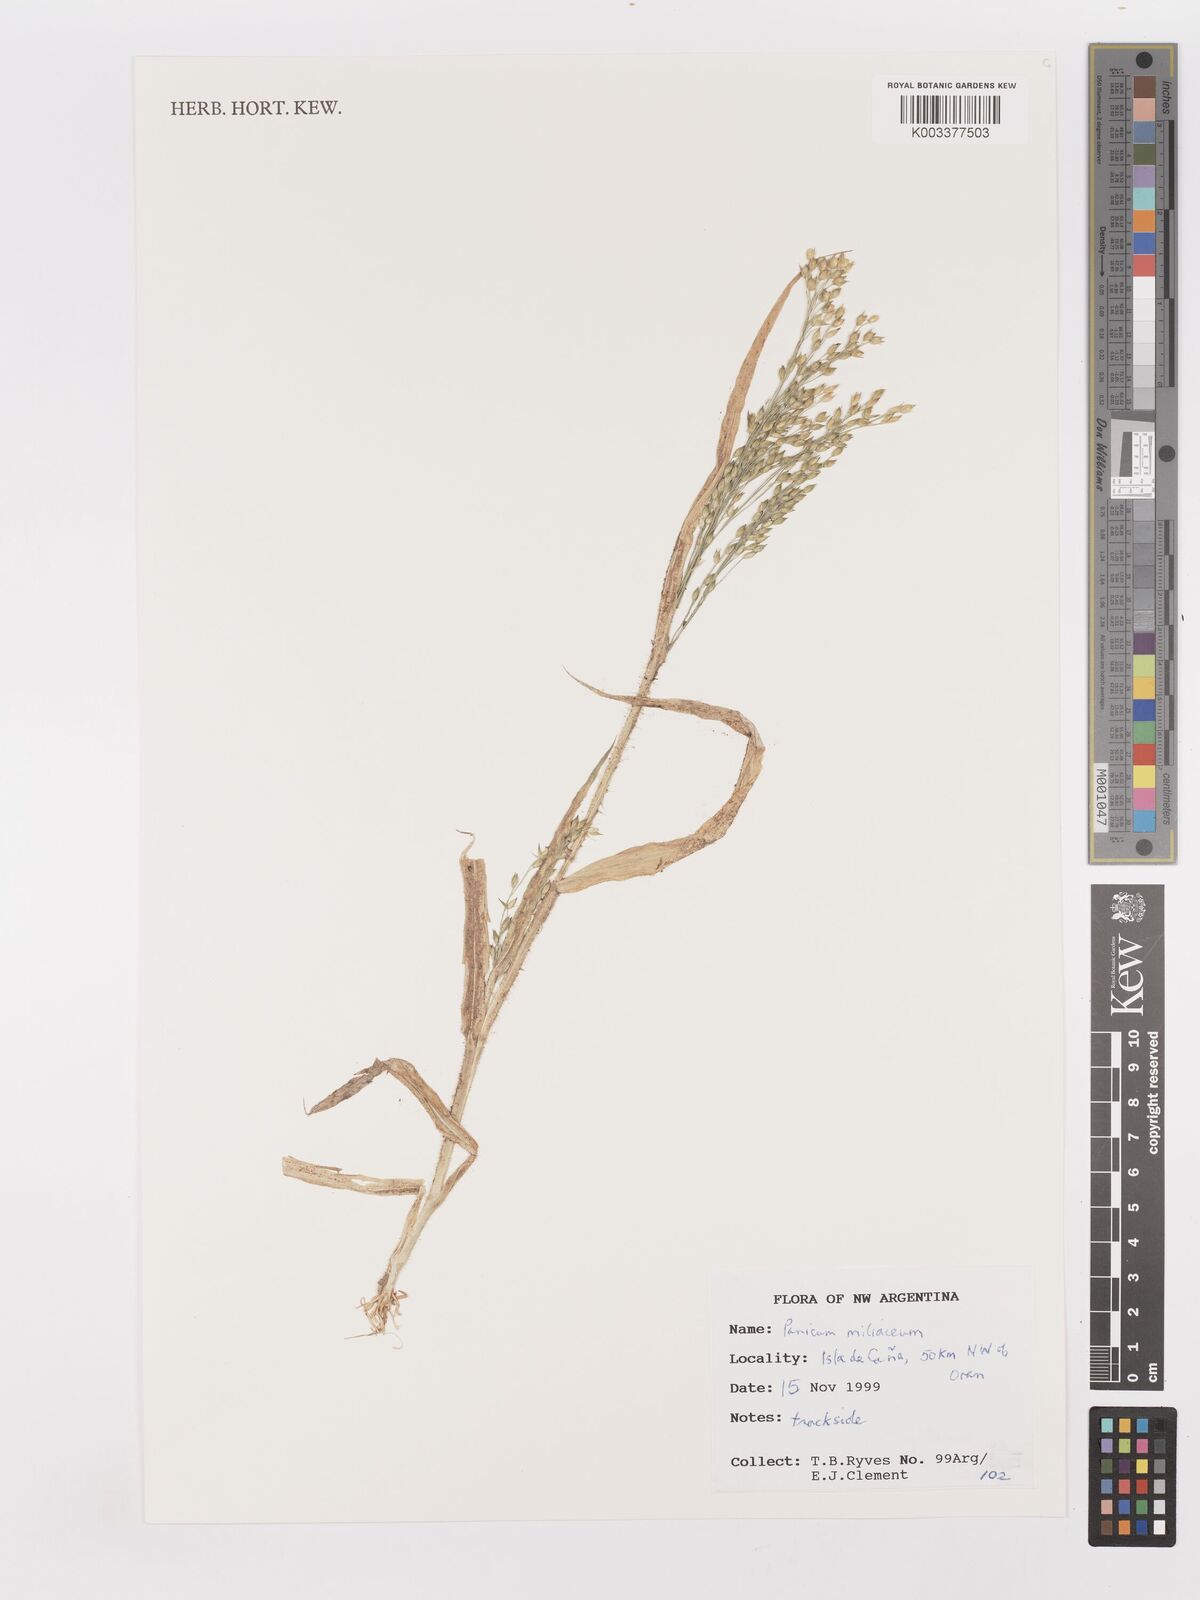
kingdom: Plantae
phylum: Tracheophyta
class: Liliopsida
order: Poales
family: Poaceae
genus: Panicum
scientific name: Panicum miliaceum
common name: Common millet
